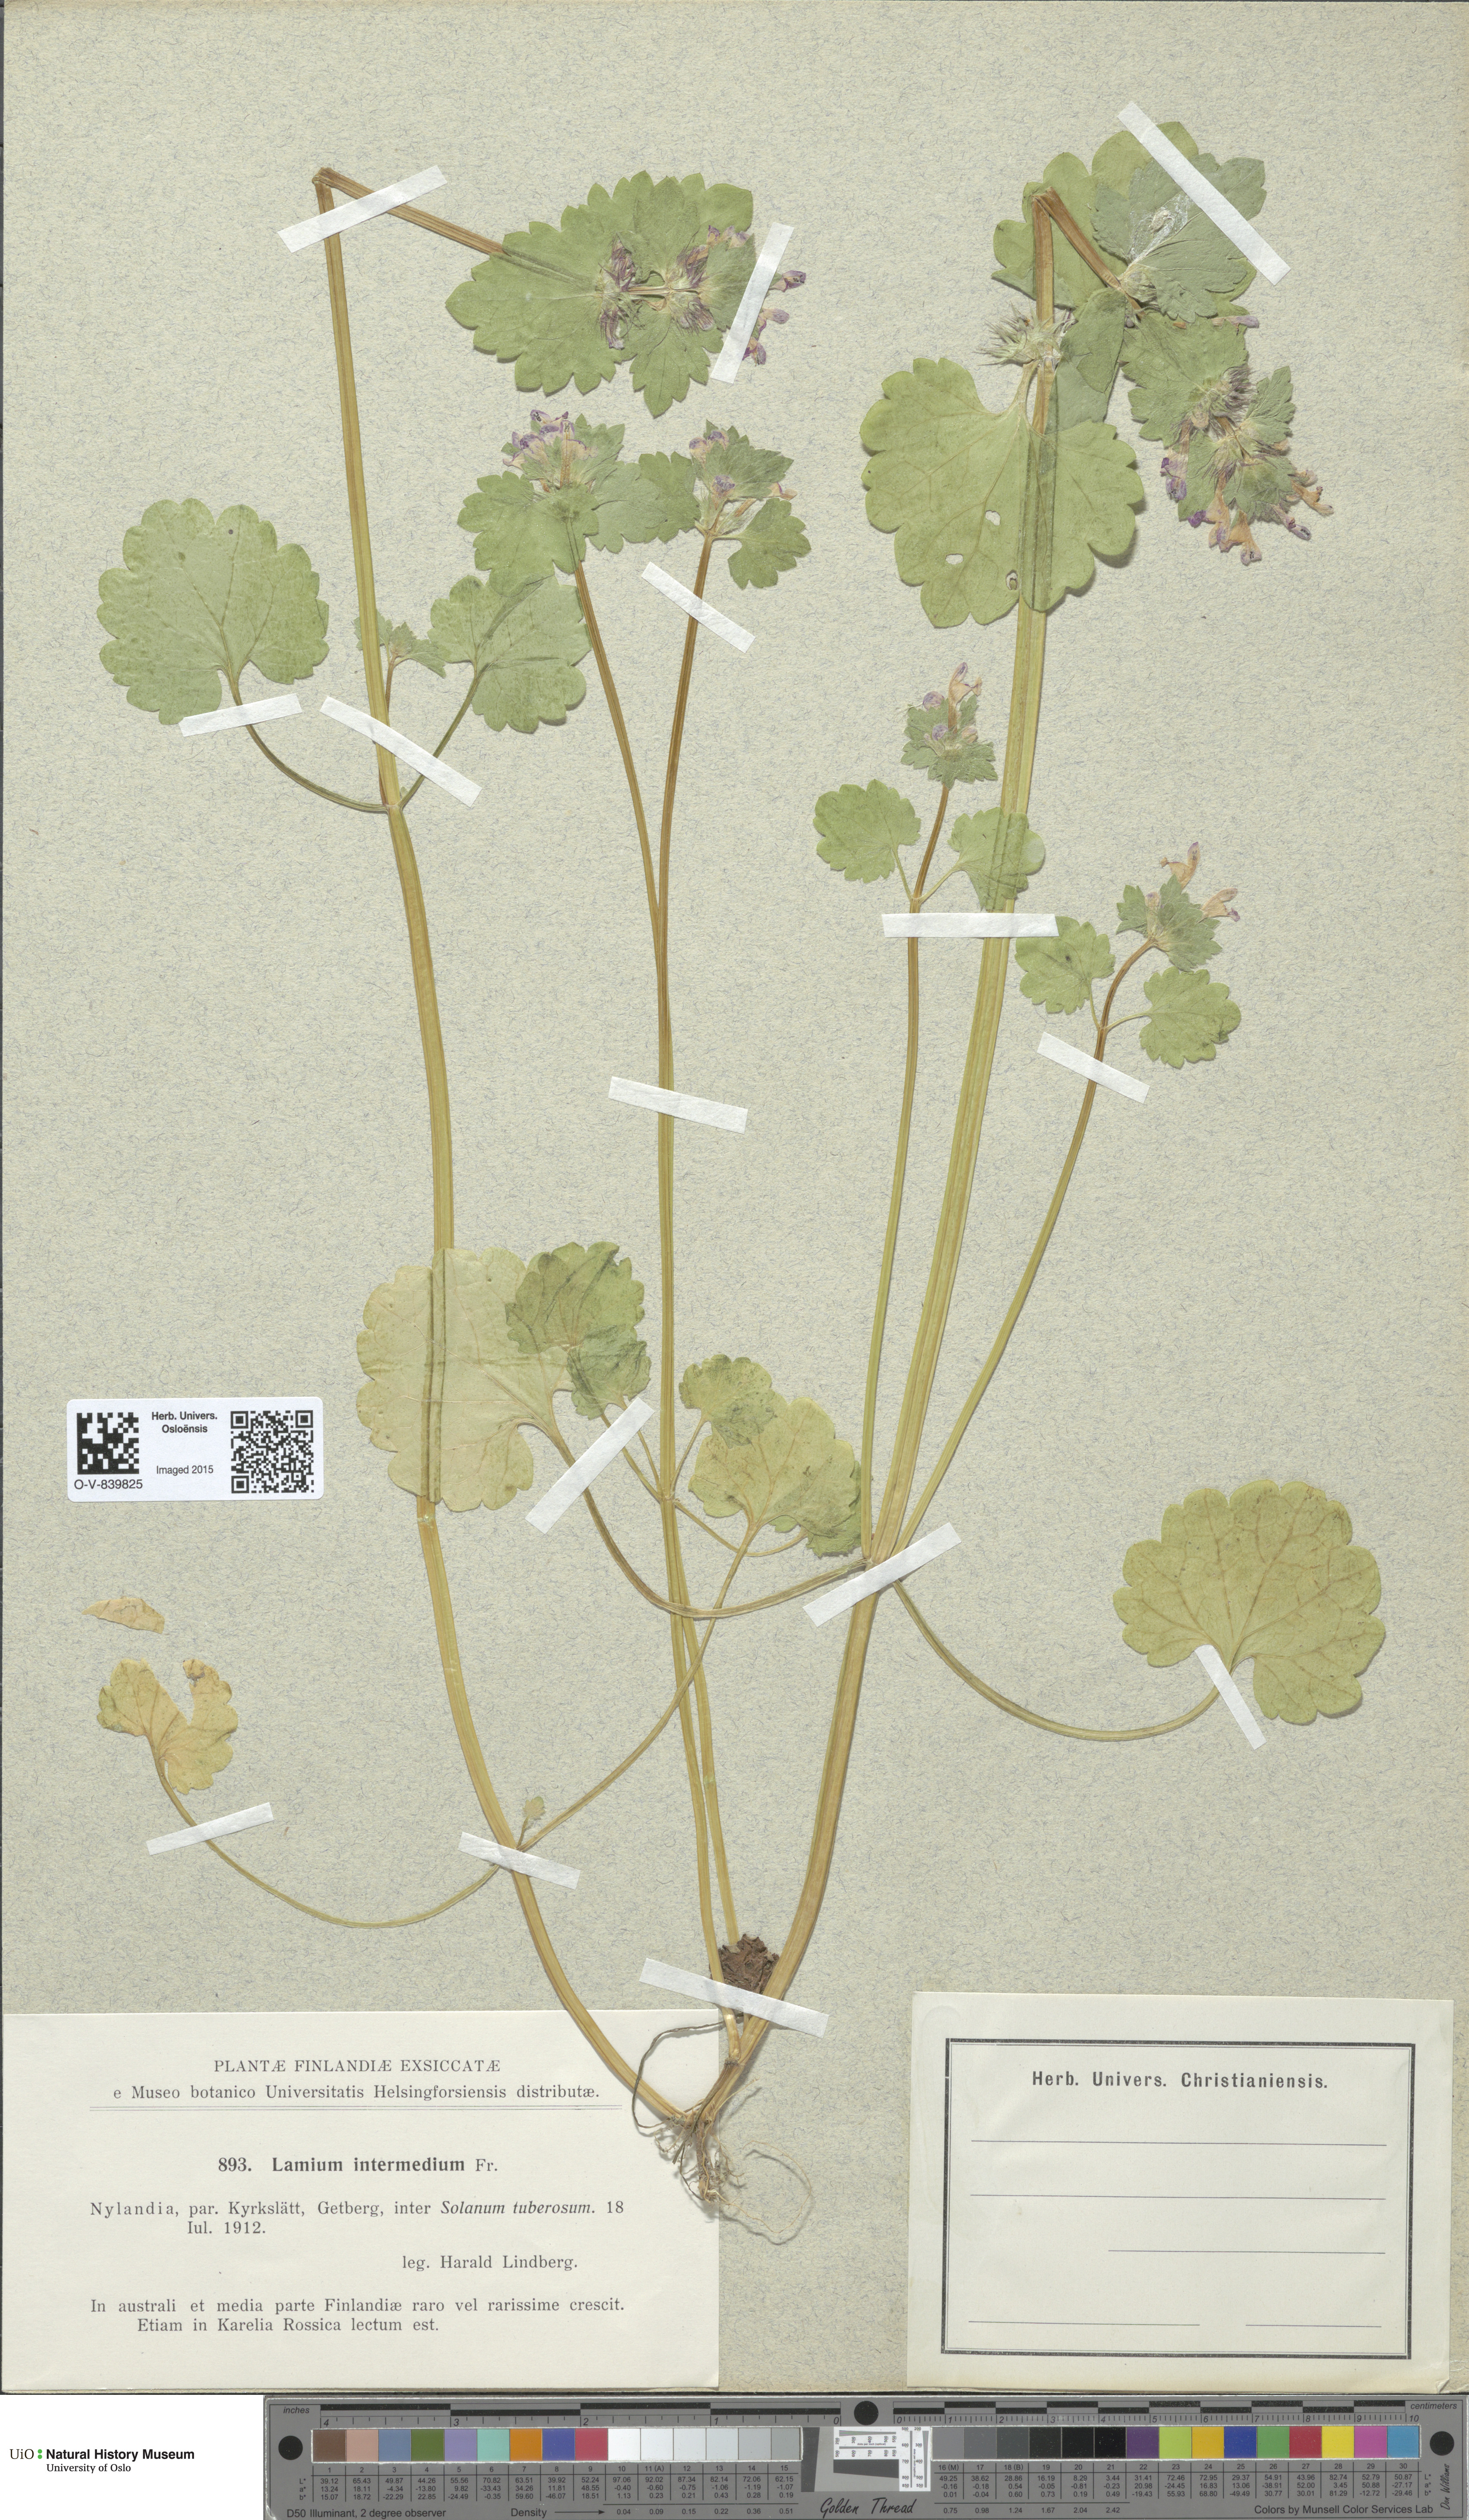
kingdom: Plantae
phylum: Tracheophyta
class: Magnoliopsida
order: Lamiales
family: Lamiaceae
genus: Lamium
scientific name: Lamium confertum
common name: Northern dead-nettle
